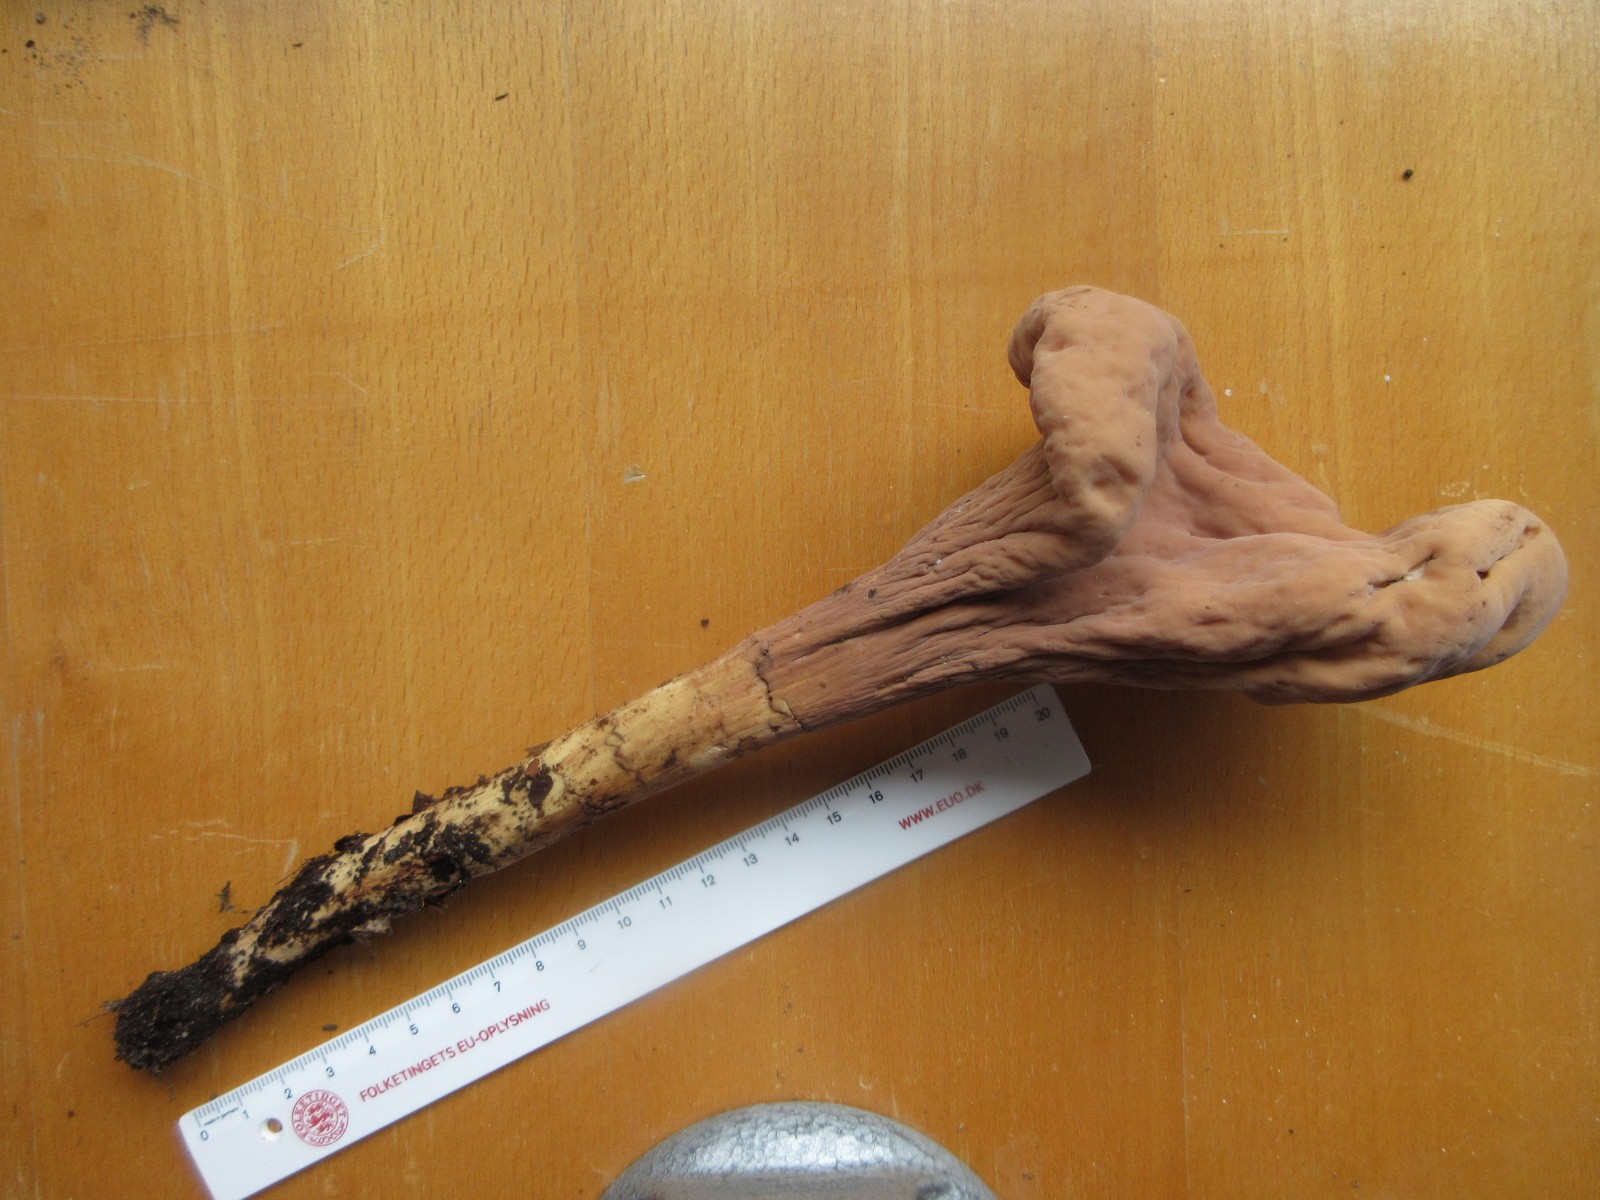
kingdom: Fungi
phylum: Basidiomycota
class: Agaricomycetes
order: Gomphales
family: Clavariadelphaceae
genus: Clavariadelphus
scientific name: Clavariadelphus pistillaris
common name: herkules-kæmpekølle
